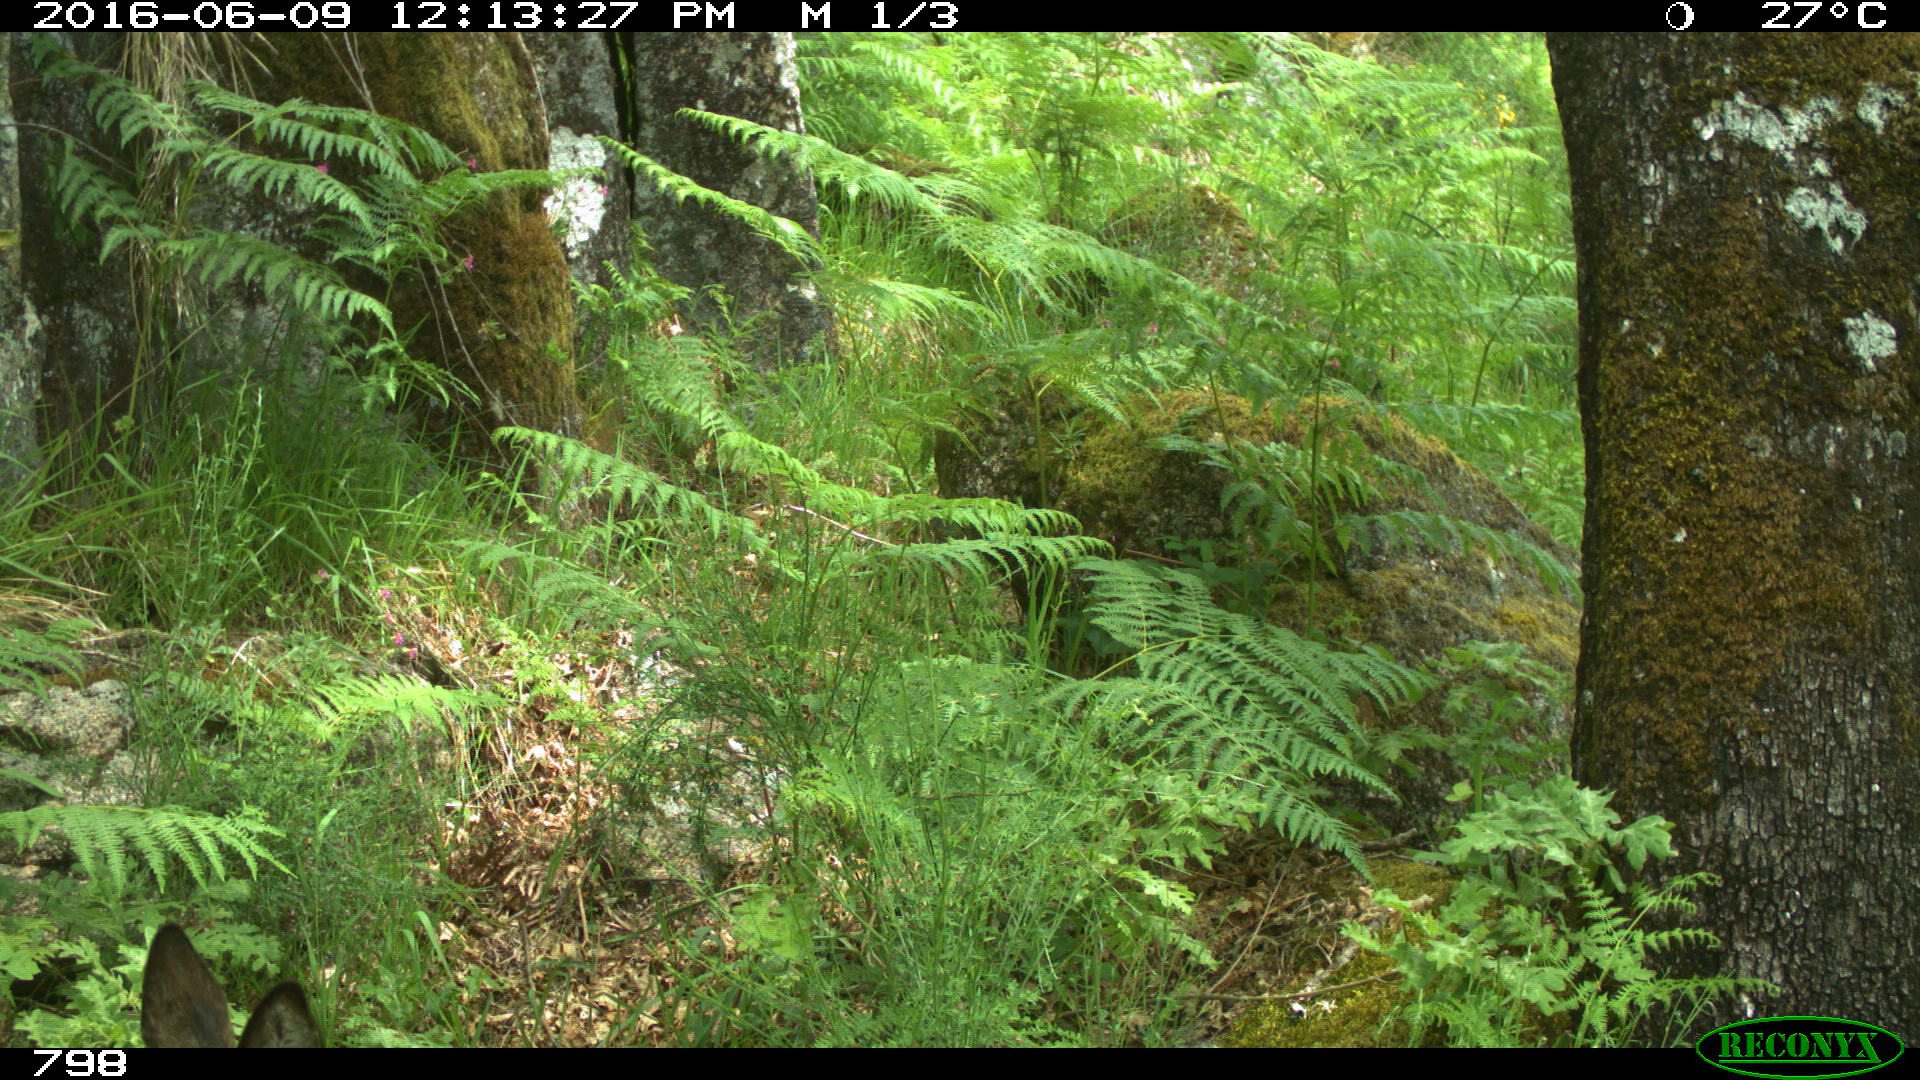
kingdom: Animalia
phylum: Chordata
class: Mammalia
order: Artiodactyla
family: Cervidae
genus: Capreolus
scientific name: Capreolus capreolus
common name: Western roe deer
